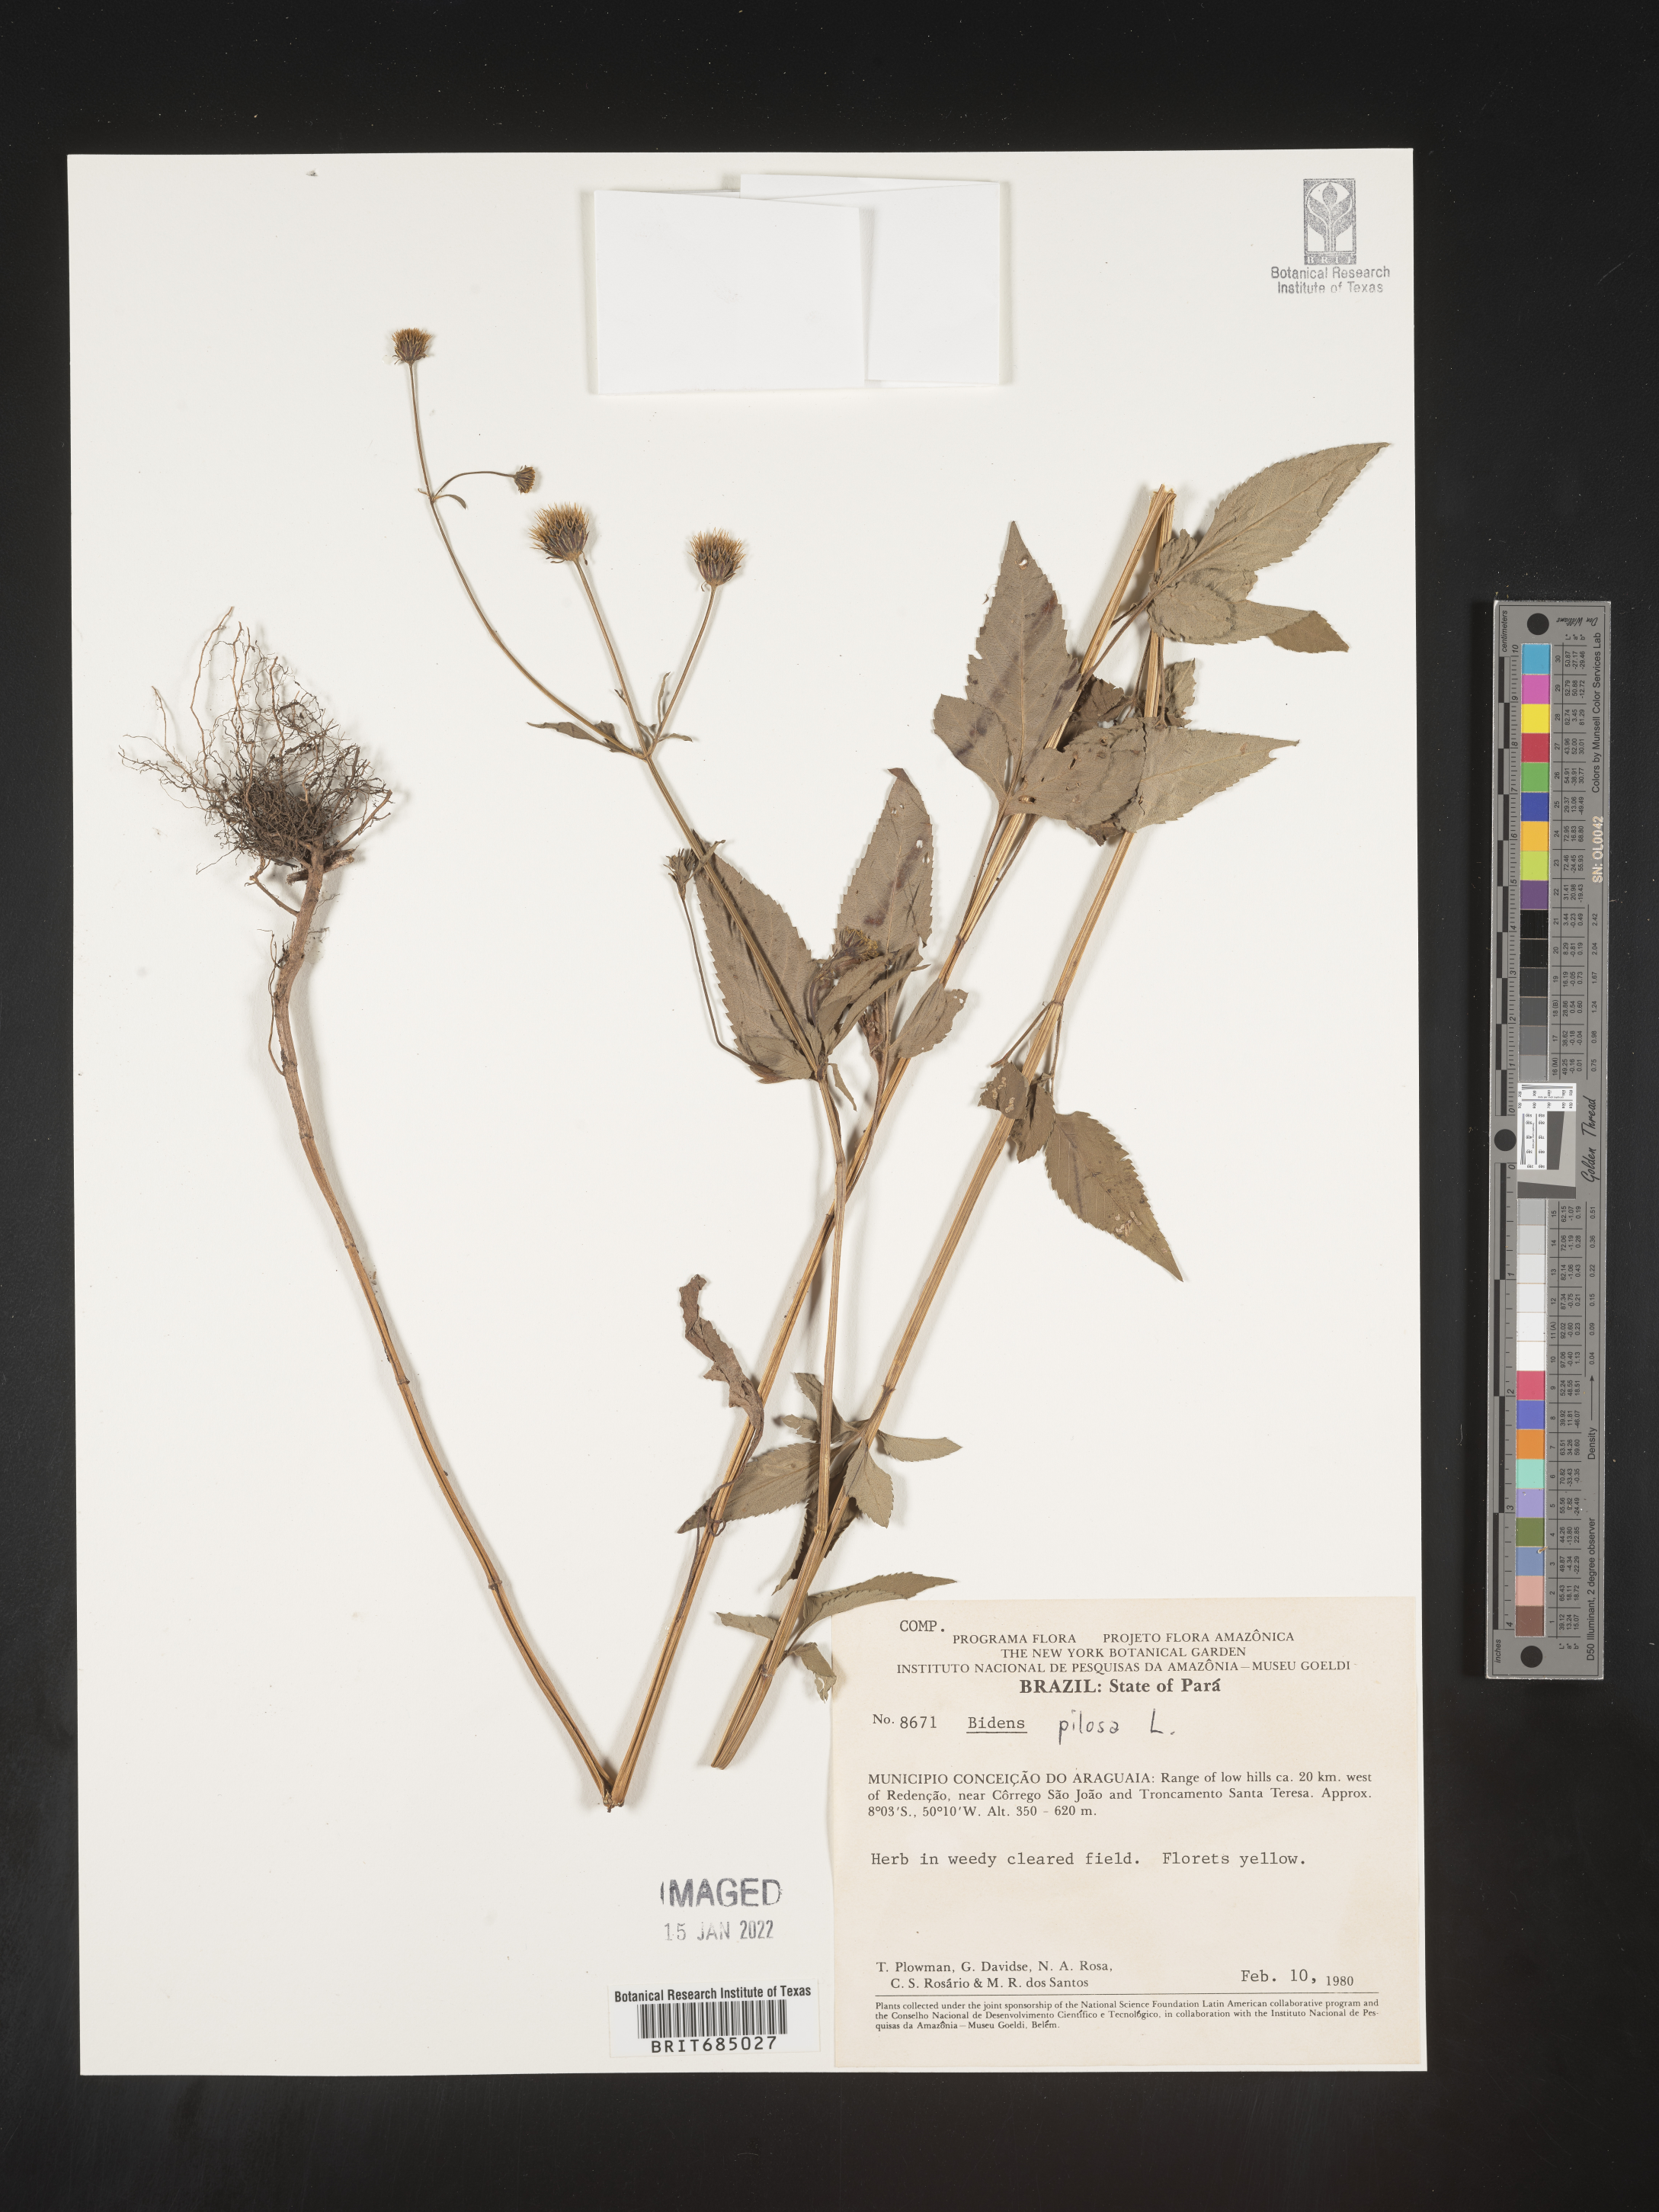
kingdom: Plantae
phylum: Tracheophyta
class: Magnoliopsida
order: Asterales
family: Asteraceae
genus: Bidens
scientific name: Bidens
